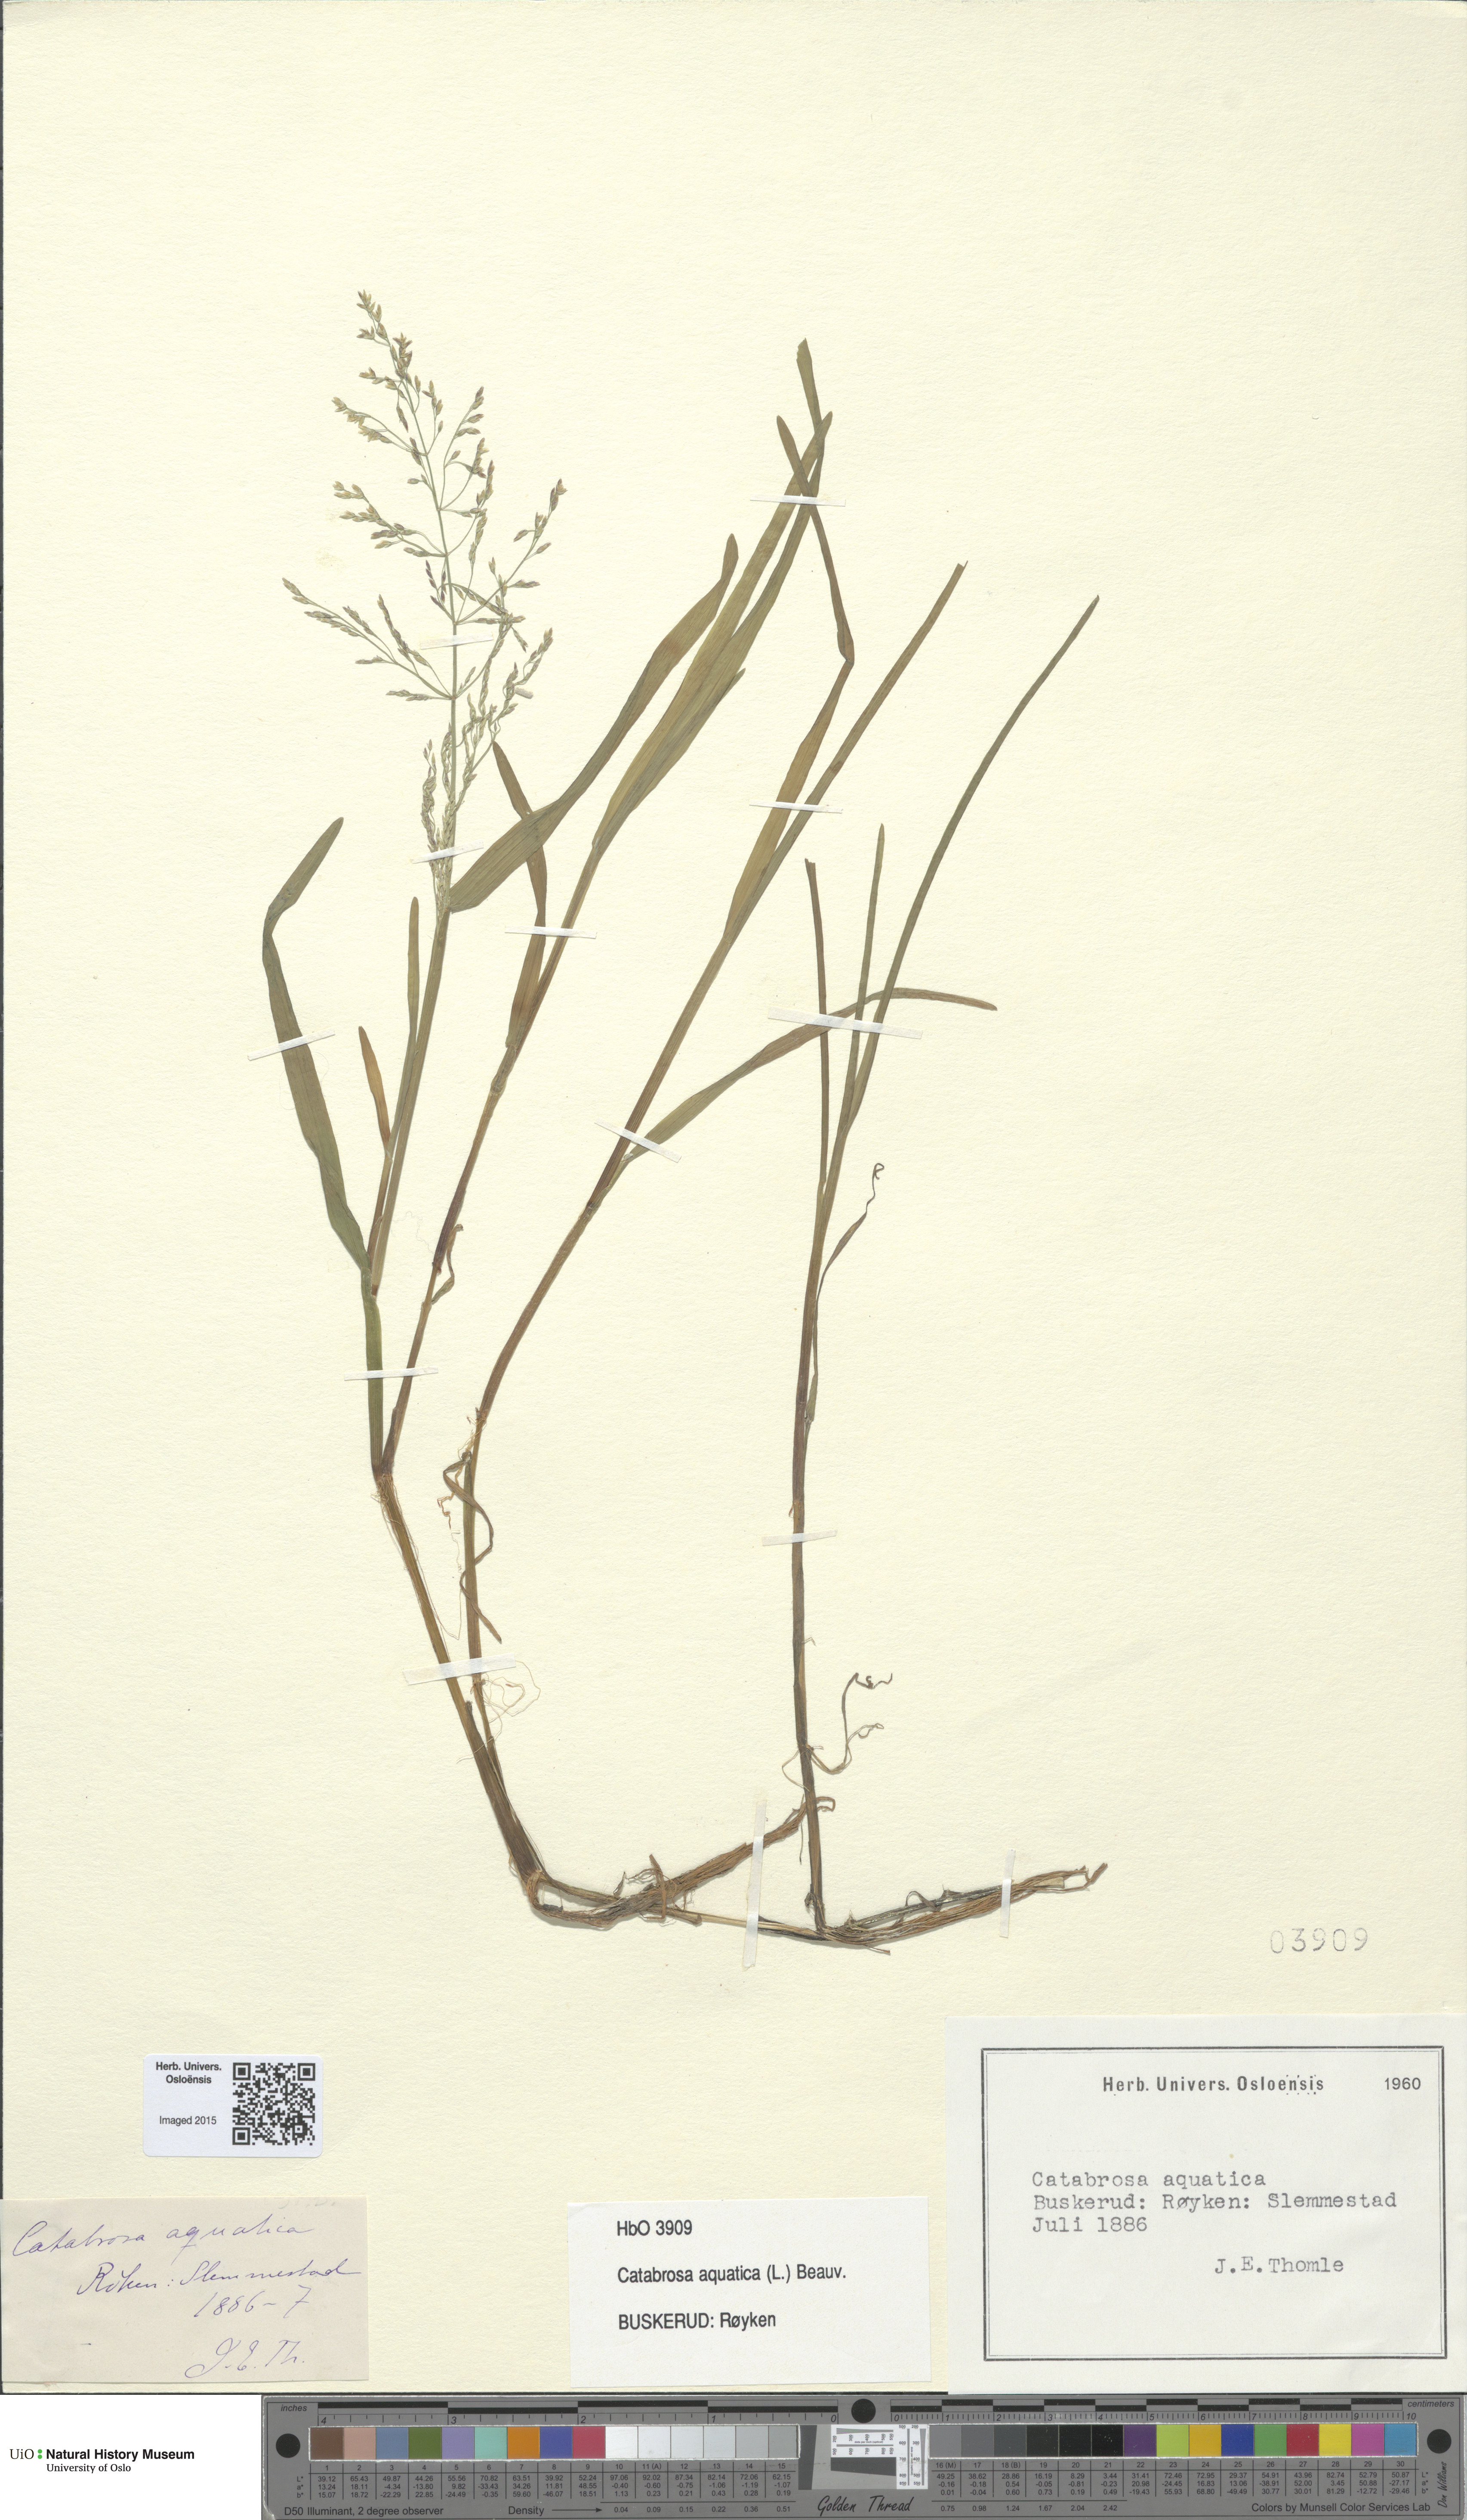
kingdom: Plantae
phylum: Tracheophyta
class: Liliopsida
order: Poales
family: Poaceae
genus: Catabrosa
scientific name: Catabrosa aquatica
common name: Whorl-grass
